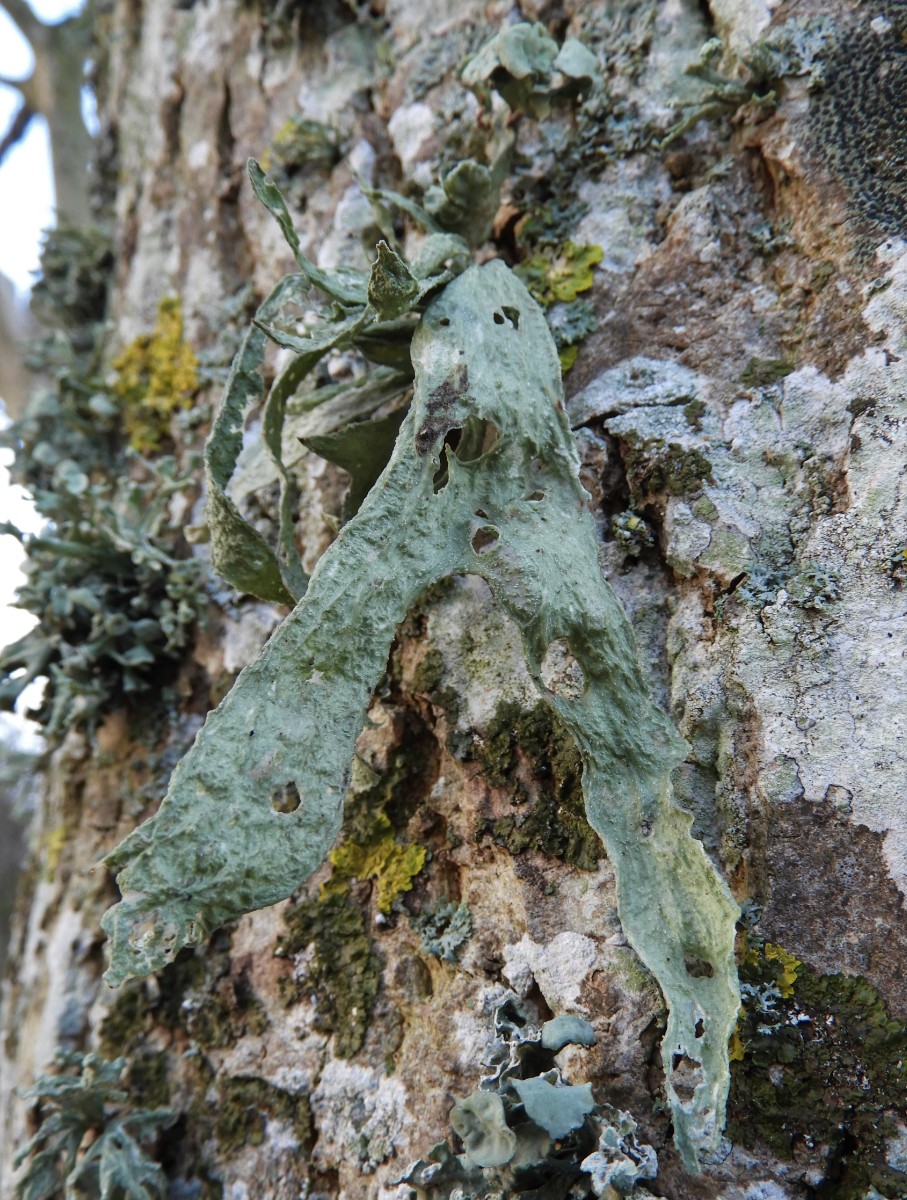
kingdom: Fungi
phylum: Ascomycota
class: Lecanoromycetes
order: Lecanorales
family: Ramalinaceae
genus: Ramalina
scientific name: Ramalina fraxinea
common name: stor grenlav
